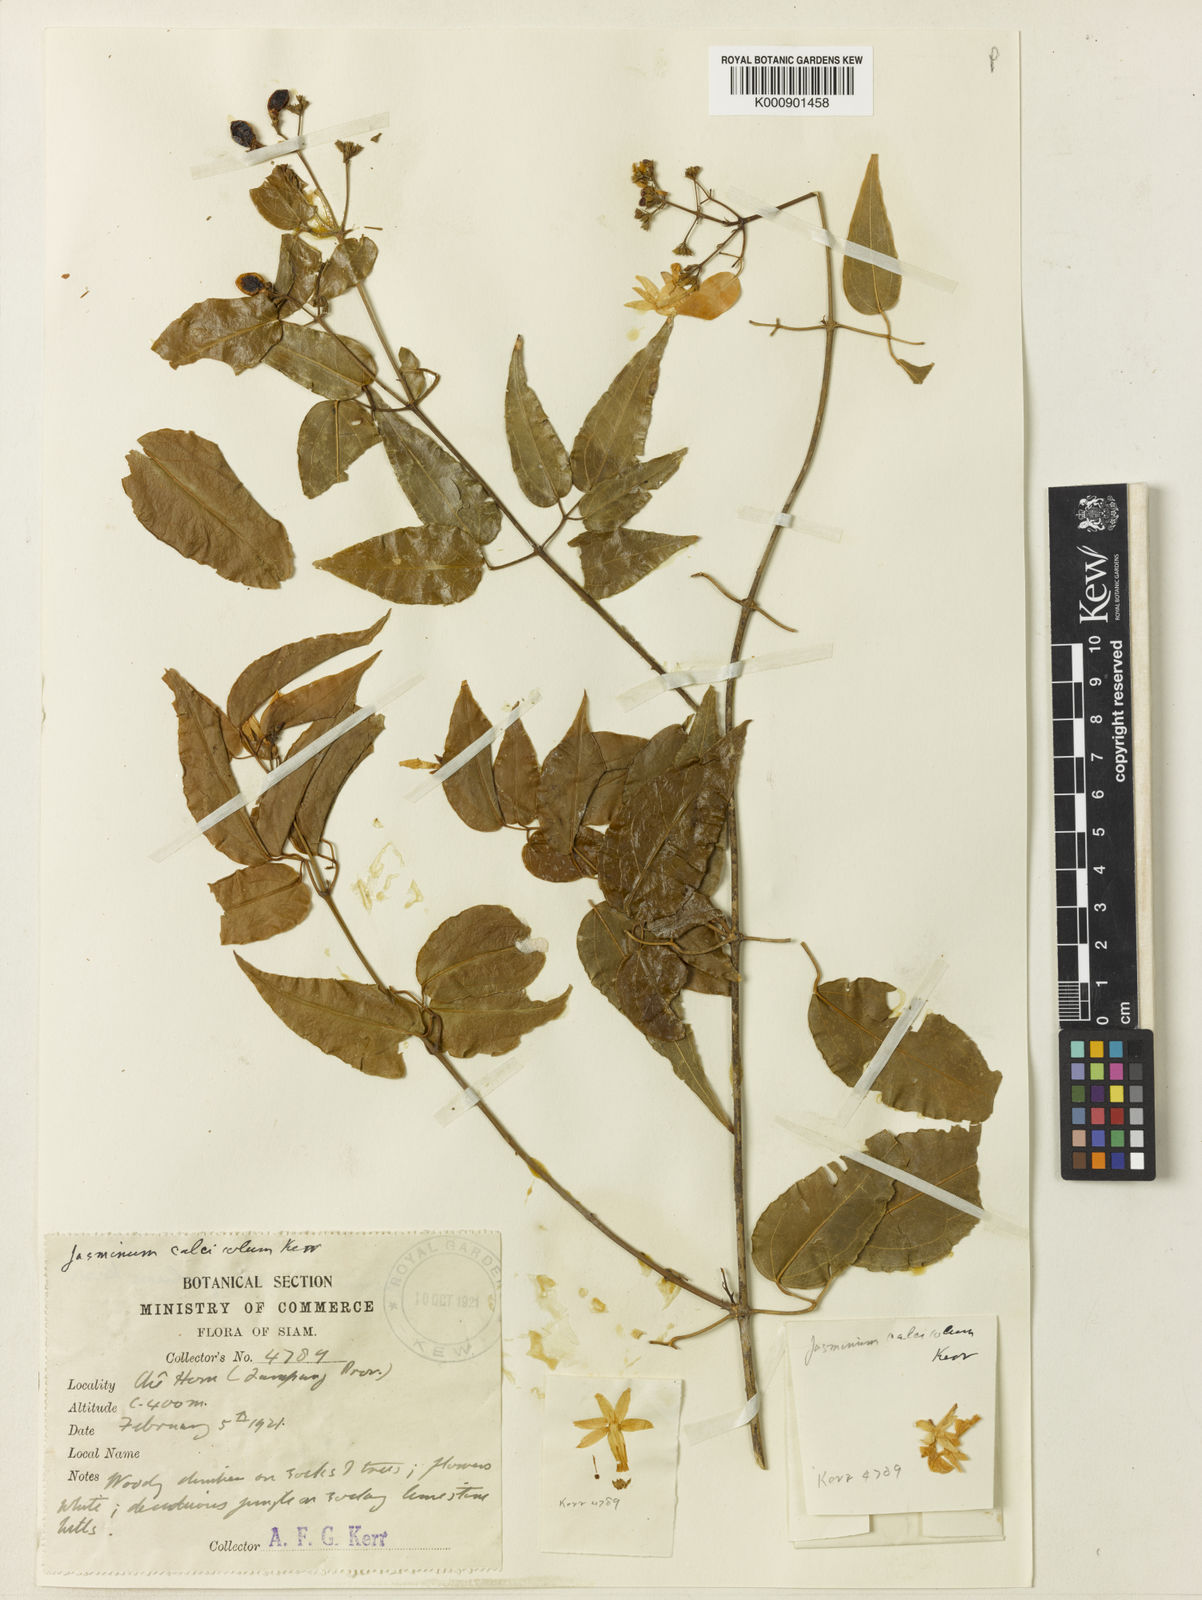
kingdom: Plantae
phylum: Tracheophyta
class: Magnoliopsida
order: Lamiales
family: Oleaceae
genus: Jasminum
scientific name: Jasminum calcicola
